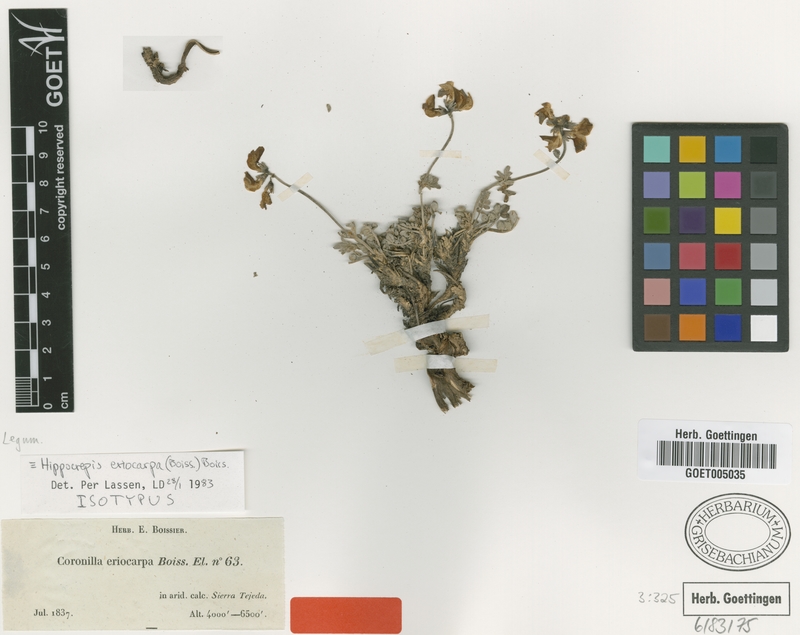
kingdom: Plantae
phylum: Tracheophyta
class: Magnoliopsida
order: Fabales
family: Fabaceae
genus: Hippocrepis
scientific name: Hippocrepis eriocarpa
